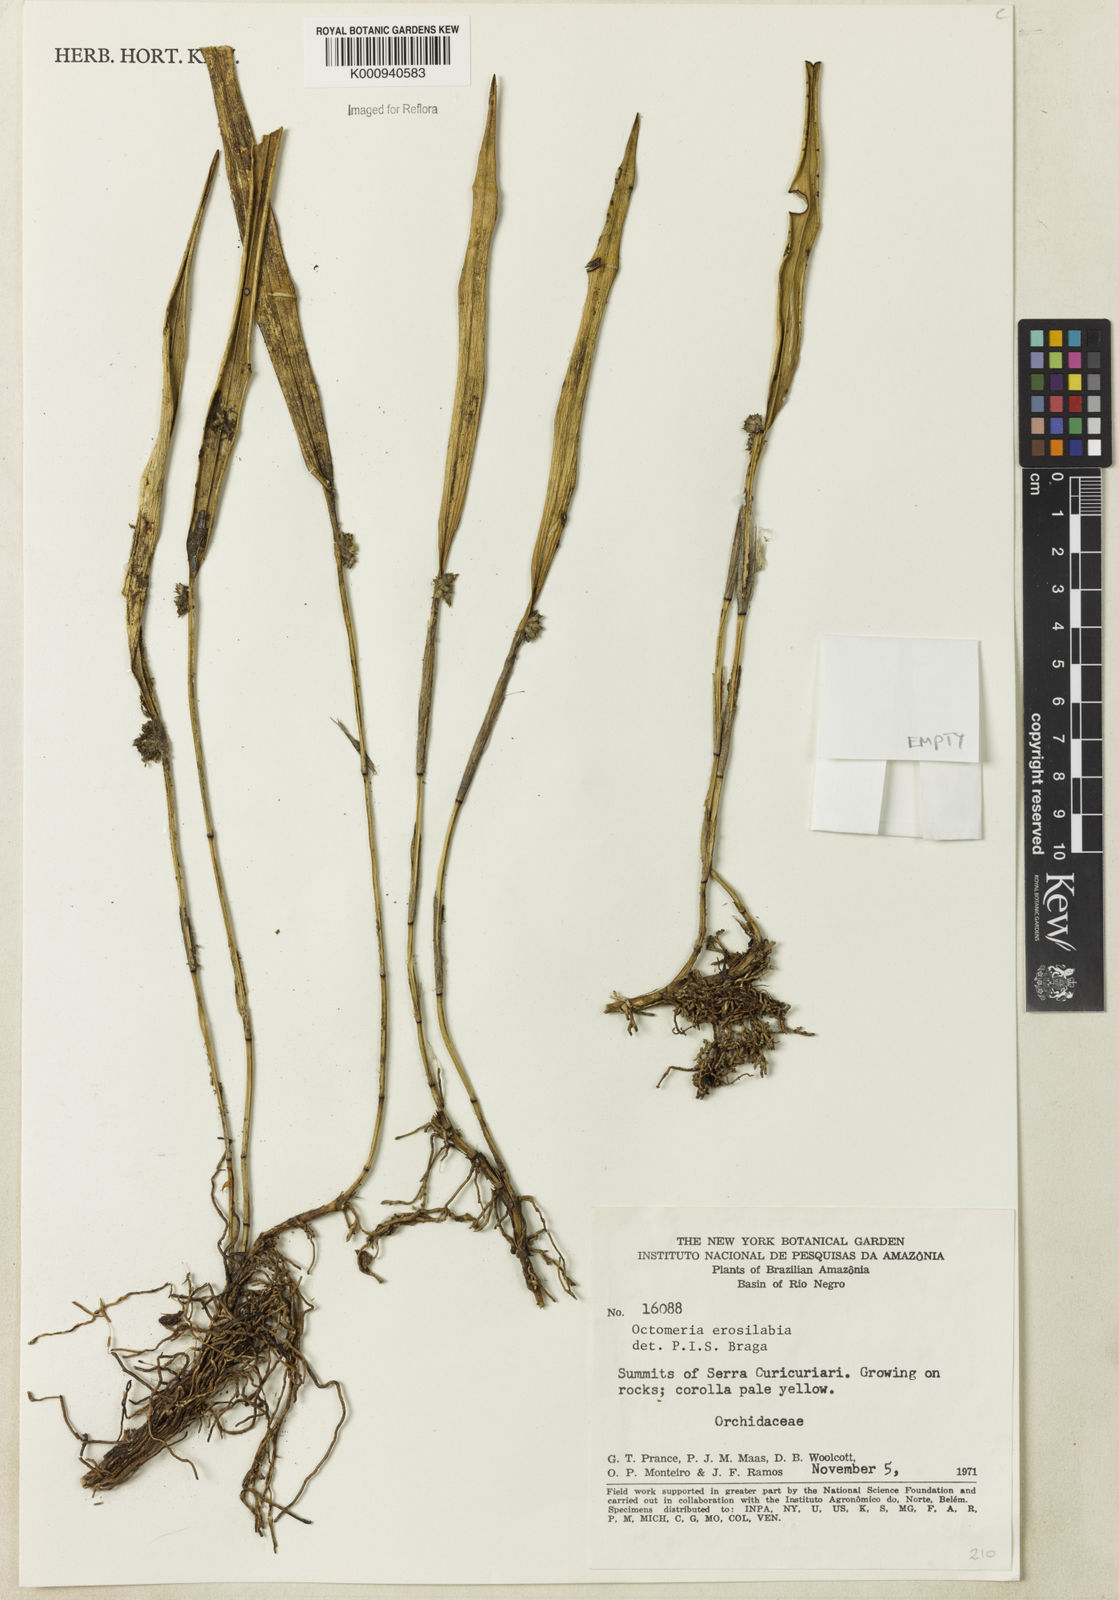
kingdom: Plantae
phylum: Tracheophyta
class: Liliopsida
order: Asparagales
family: Orchidaceae
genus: Octomeria
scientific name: Octomeria erosilabia
